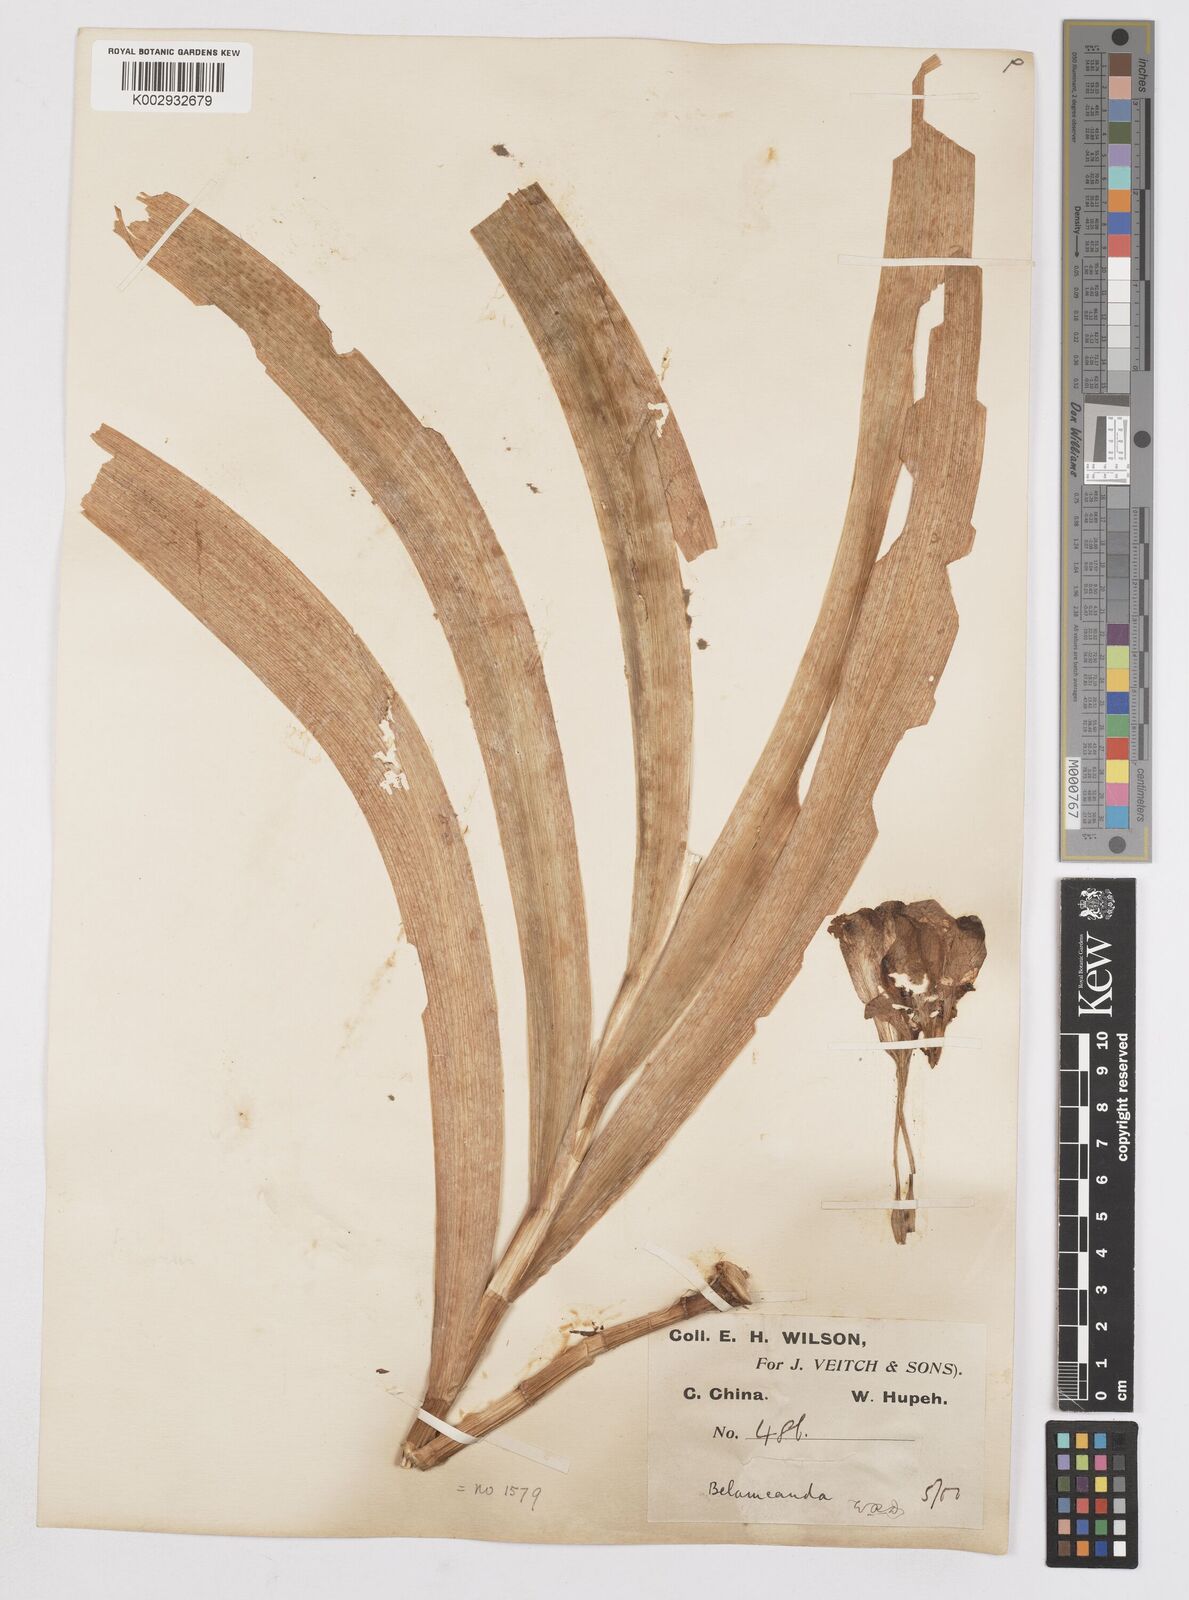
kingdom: Plantae
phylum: Tracheophyta
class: Liliopsida
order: Asparagales
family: Iridaceae
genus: Iris
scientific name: Iris
